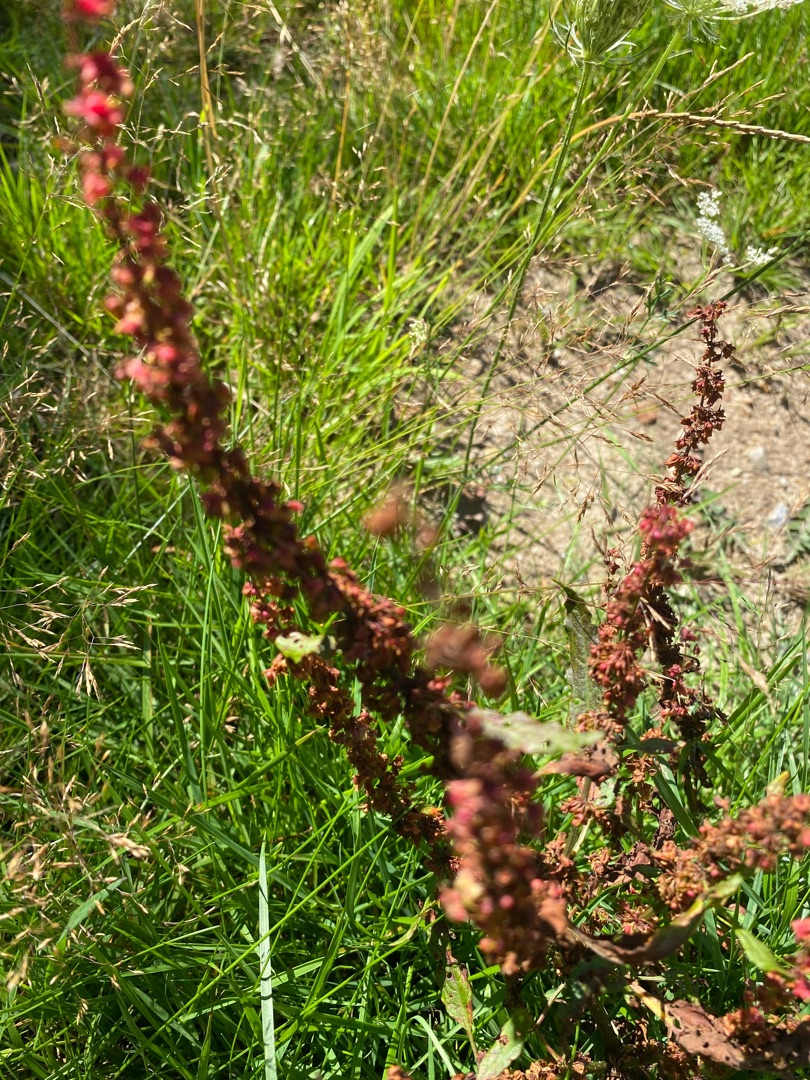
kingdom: Plantae
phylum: Tracheophyta
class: Magnoliopsida
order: Caryophyllales
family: Polygonaceae
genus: Rumex
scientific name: Rumex conglomeratus
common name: Nøgle-skræppe
